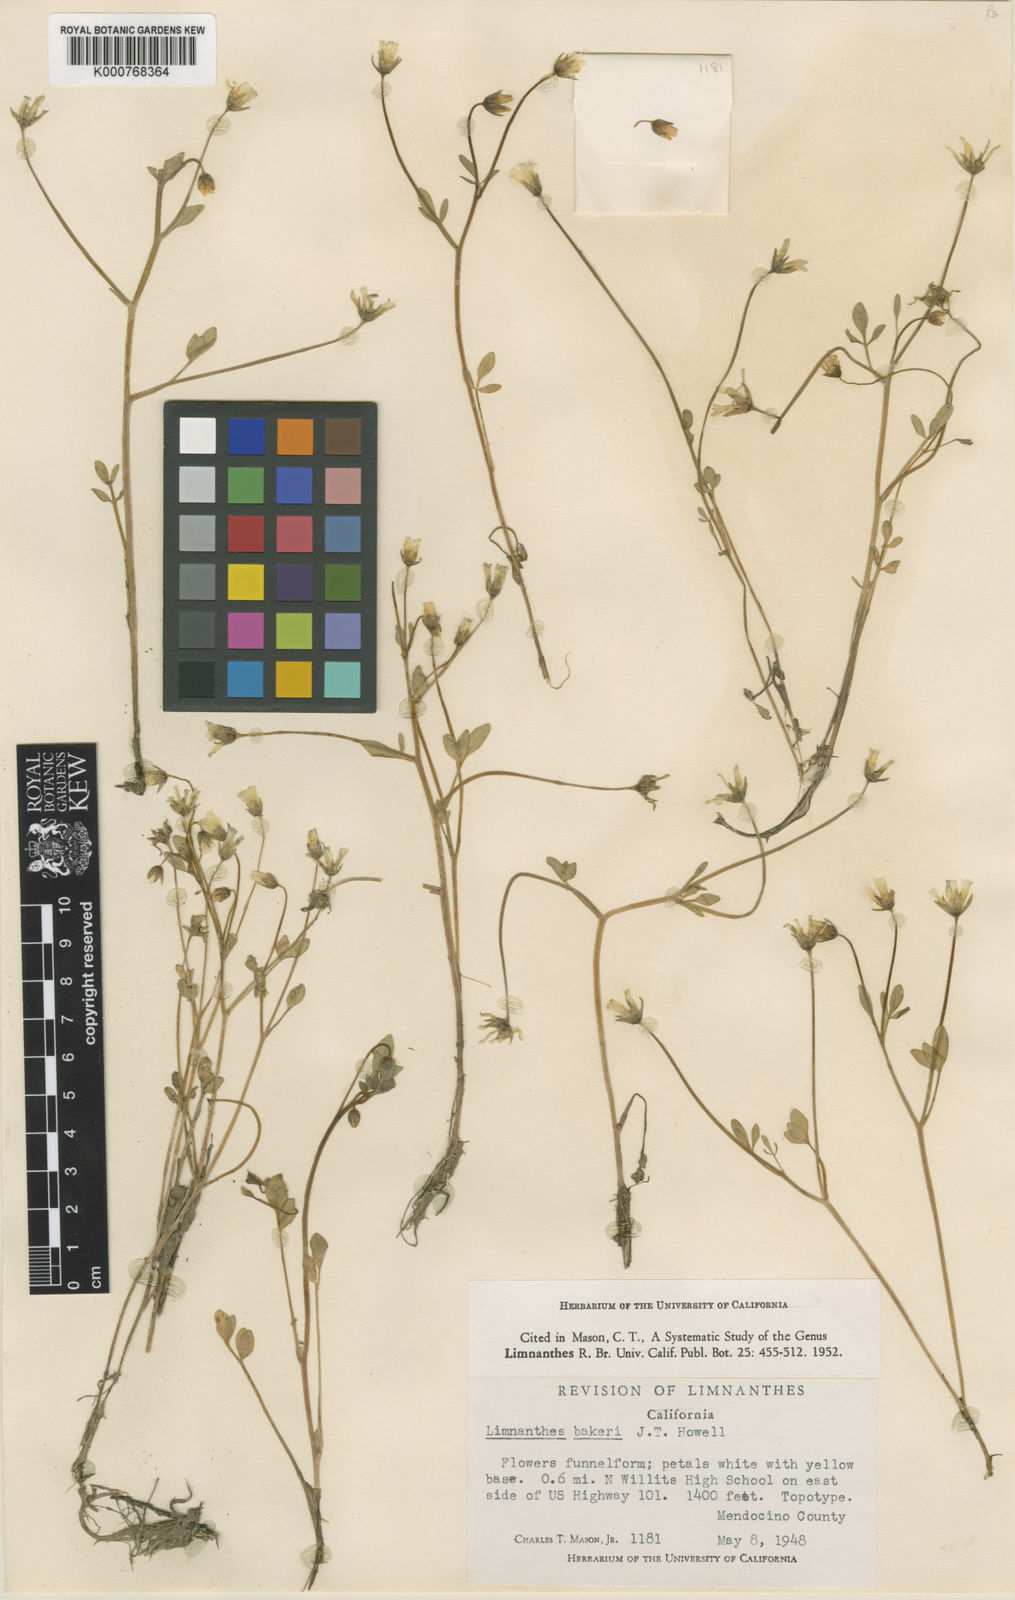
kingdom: Plantae
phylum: Tracheophyta
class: Magnoliopsida
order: Brassicales
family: Limnanthaceae
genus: Limnanthes
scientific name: Limnanthes bakeri
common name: Meadowfoam
